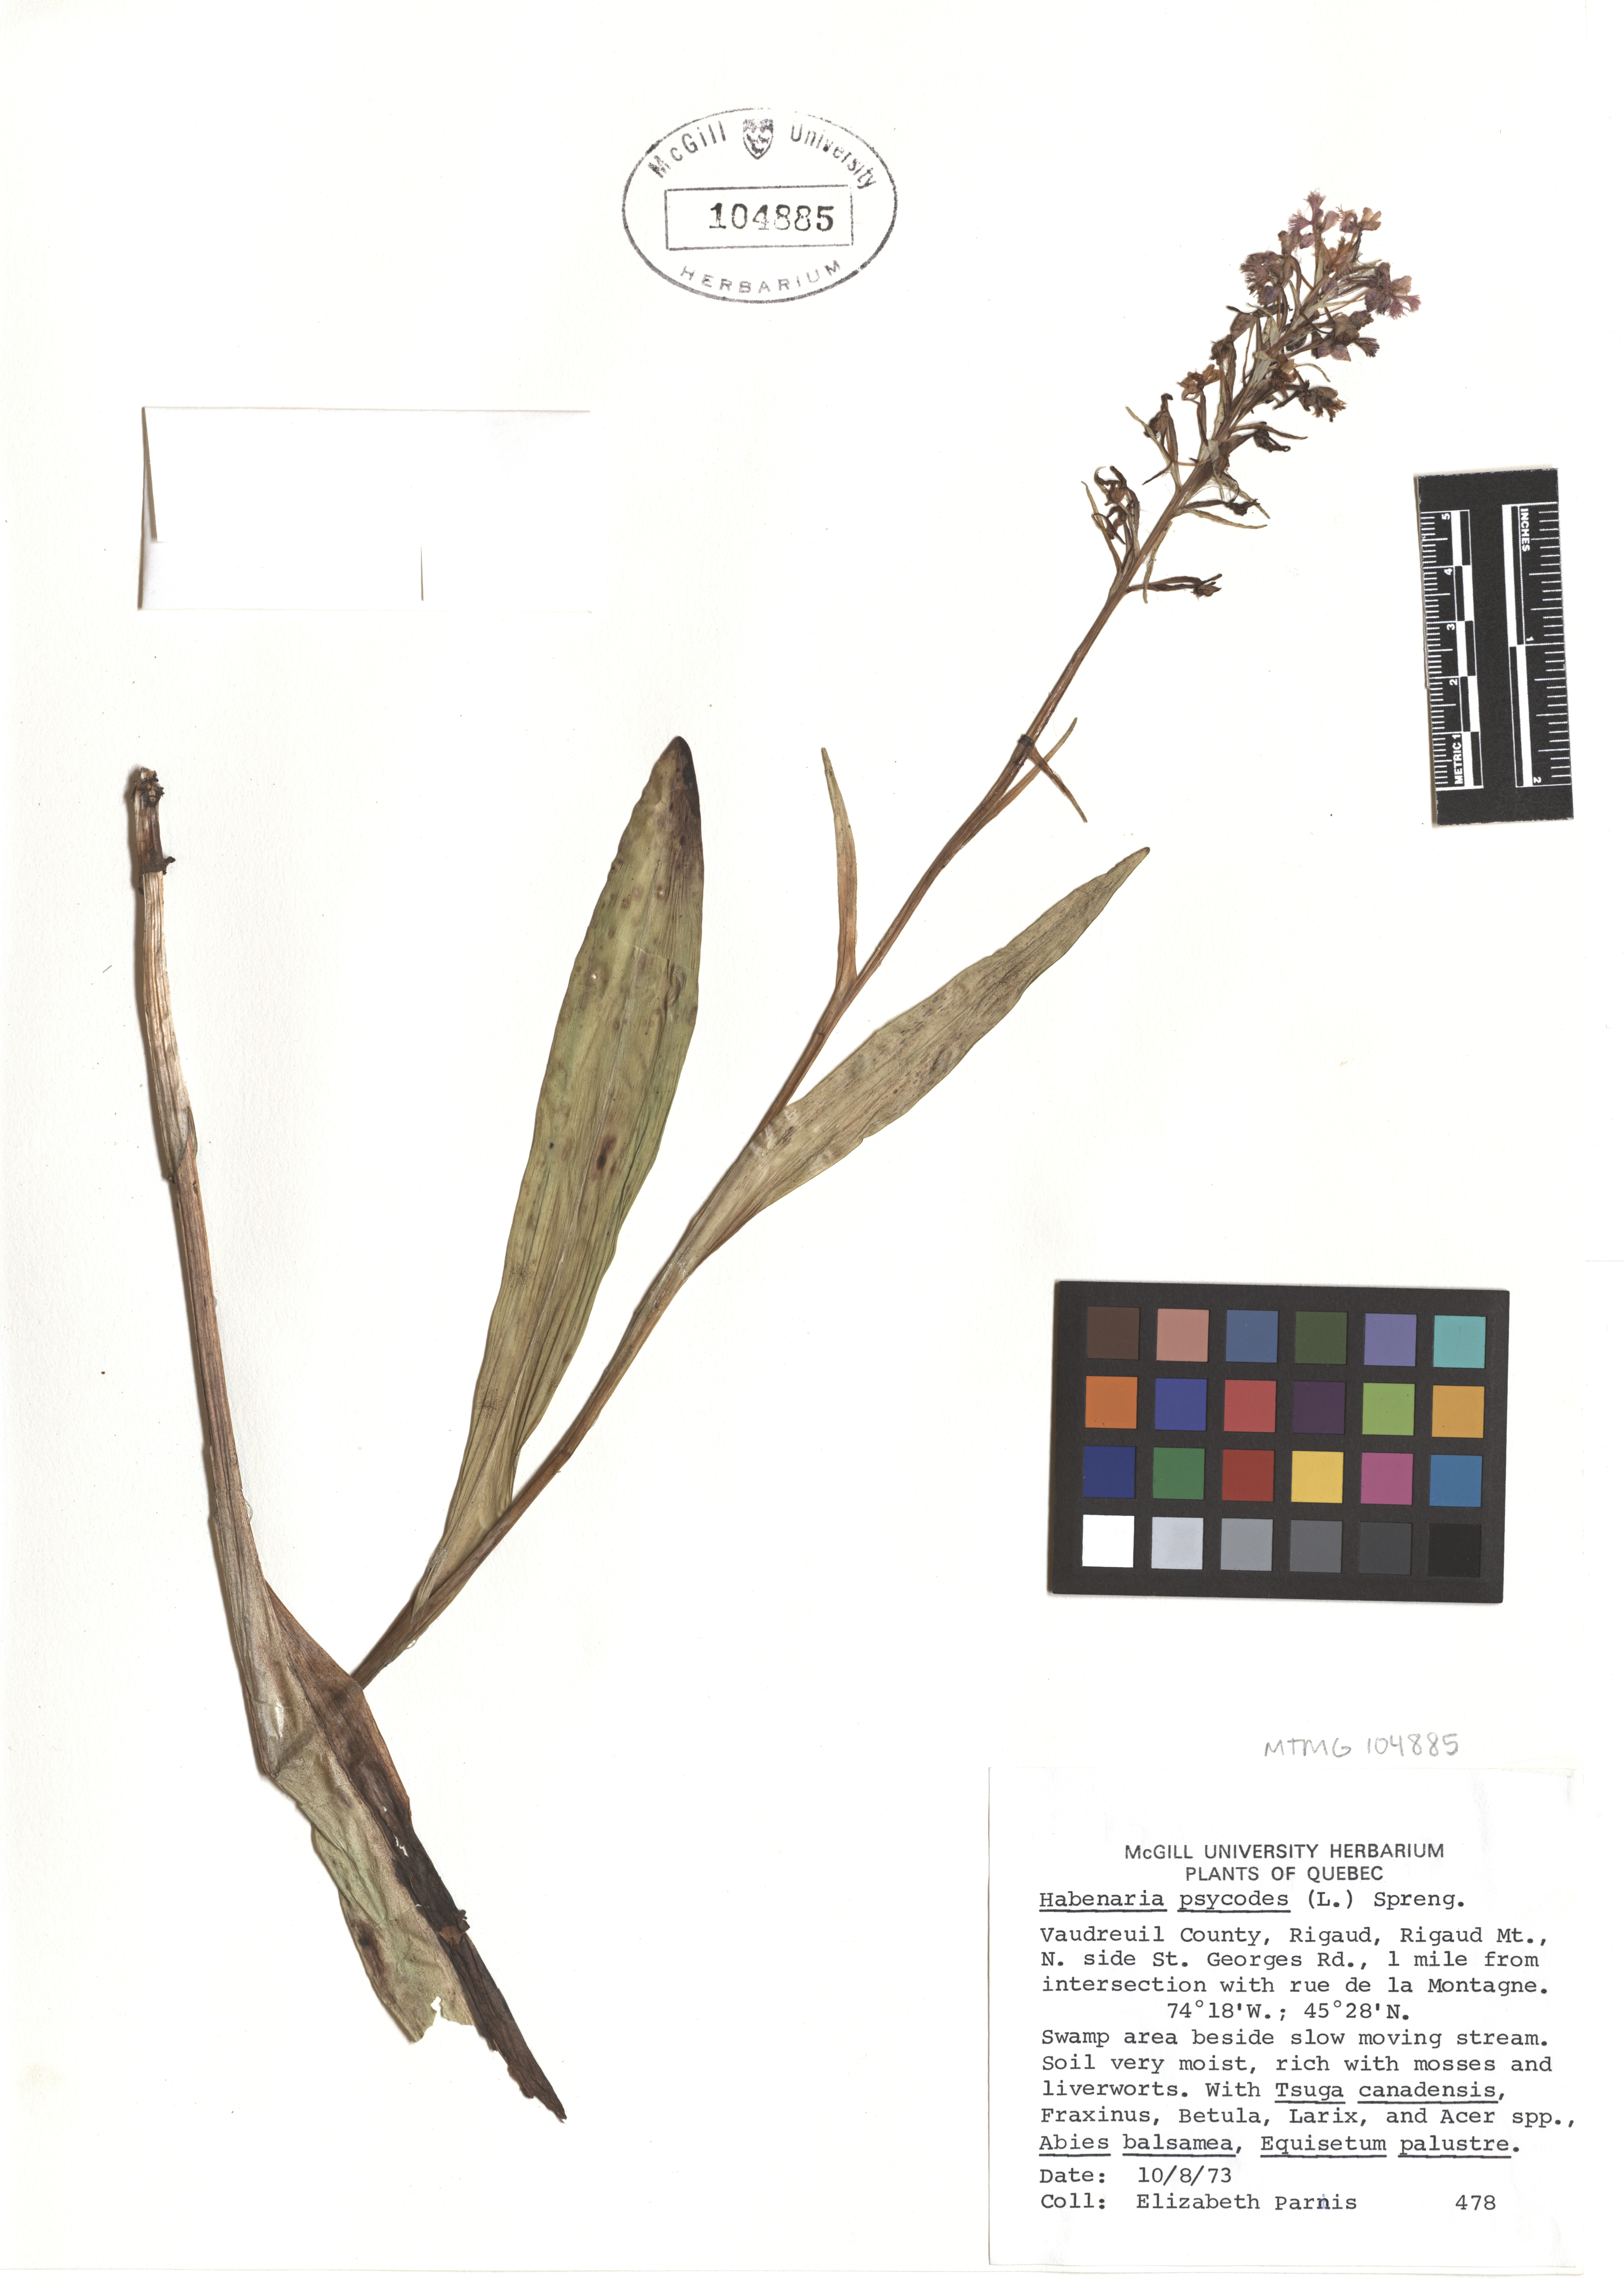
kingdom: Plantae
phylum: Tracheophyta
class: Liliopsida
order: Asparagales
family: Orchidaceae
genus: Platanthera
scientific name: Platanthera psycodes
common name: Lesser purple fringed orchid
